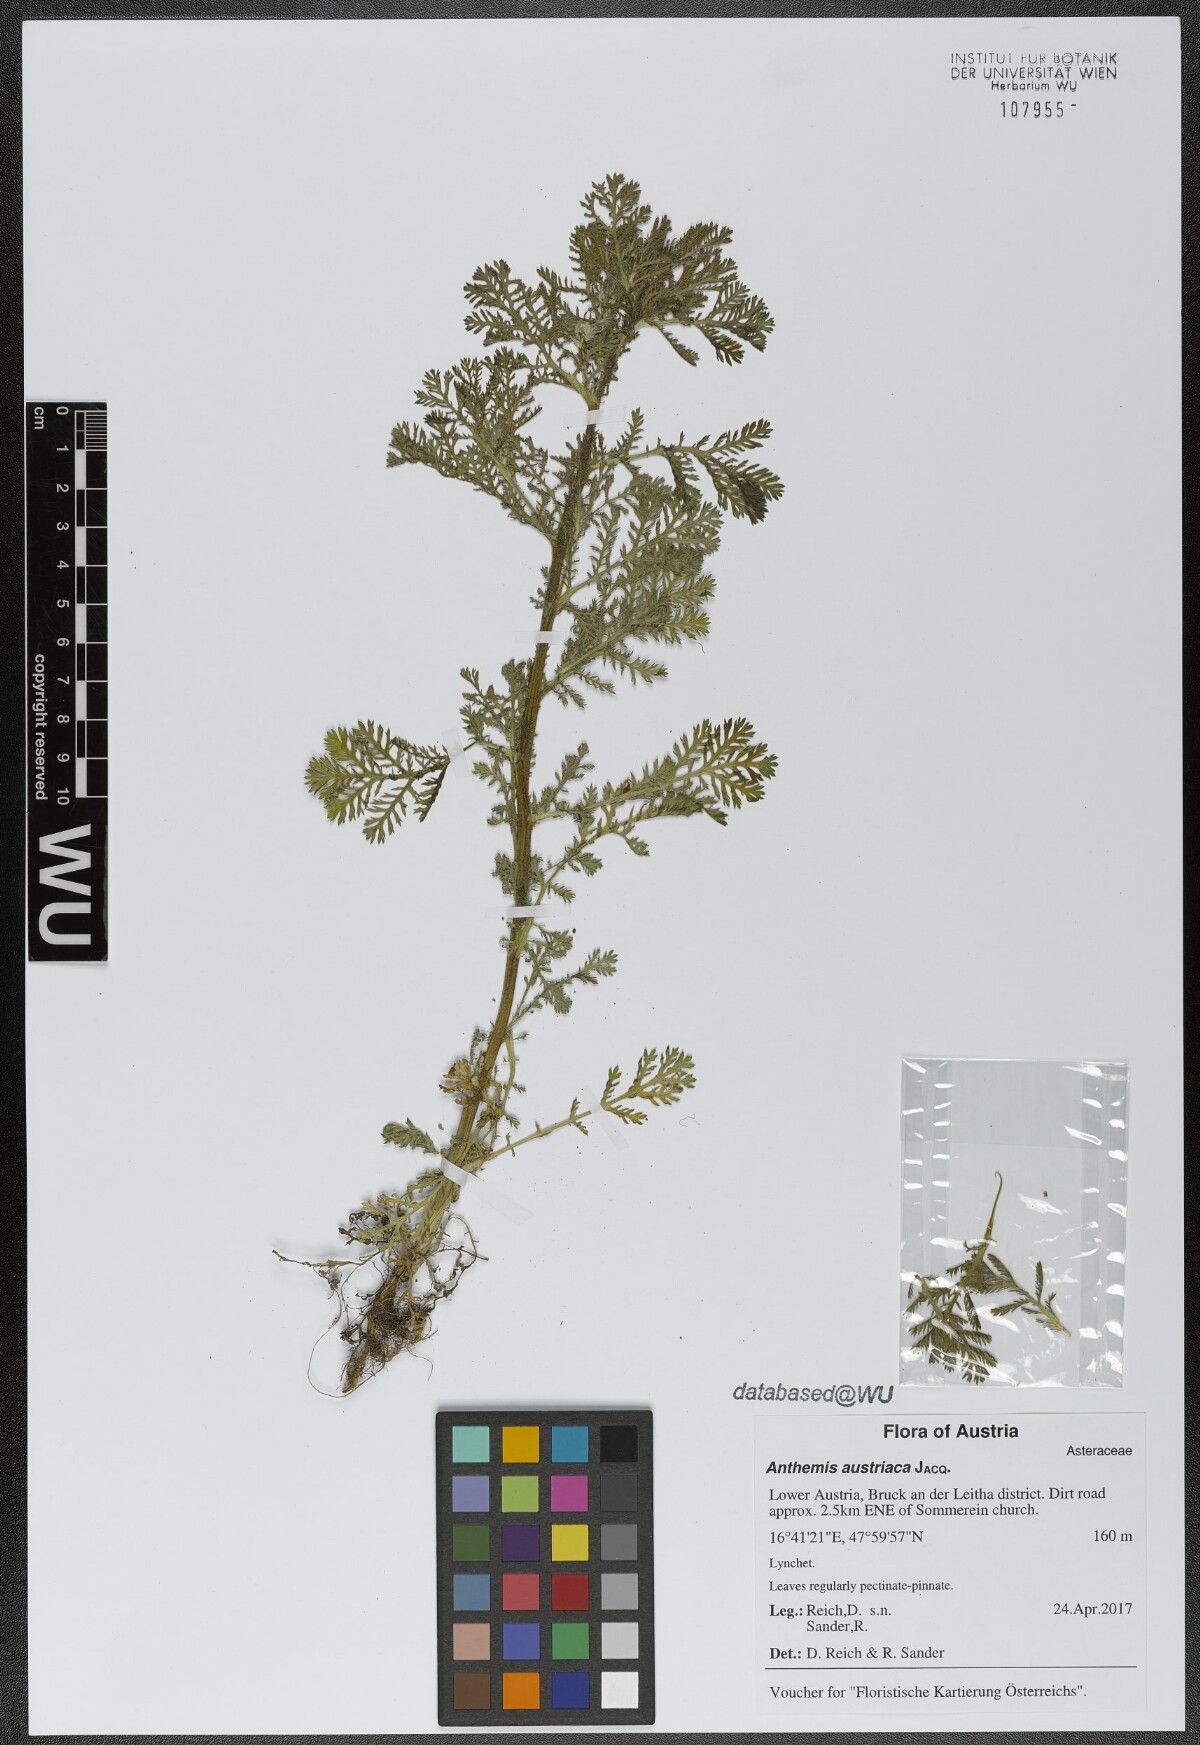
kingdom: Plantae
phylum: Tracheophyta
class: Magnoliopsida
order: Asterales
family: Asteraceae
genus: Cota
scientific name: Cota austriaca
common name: Austrian chamomile
